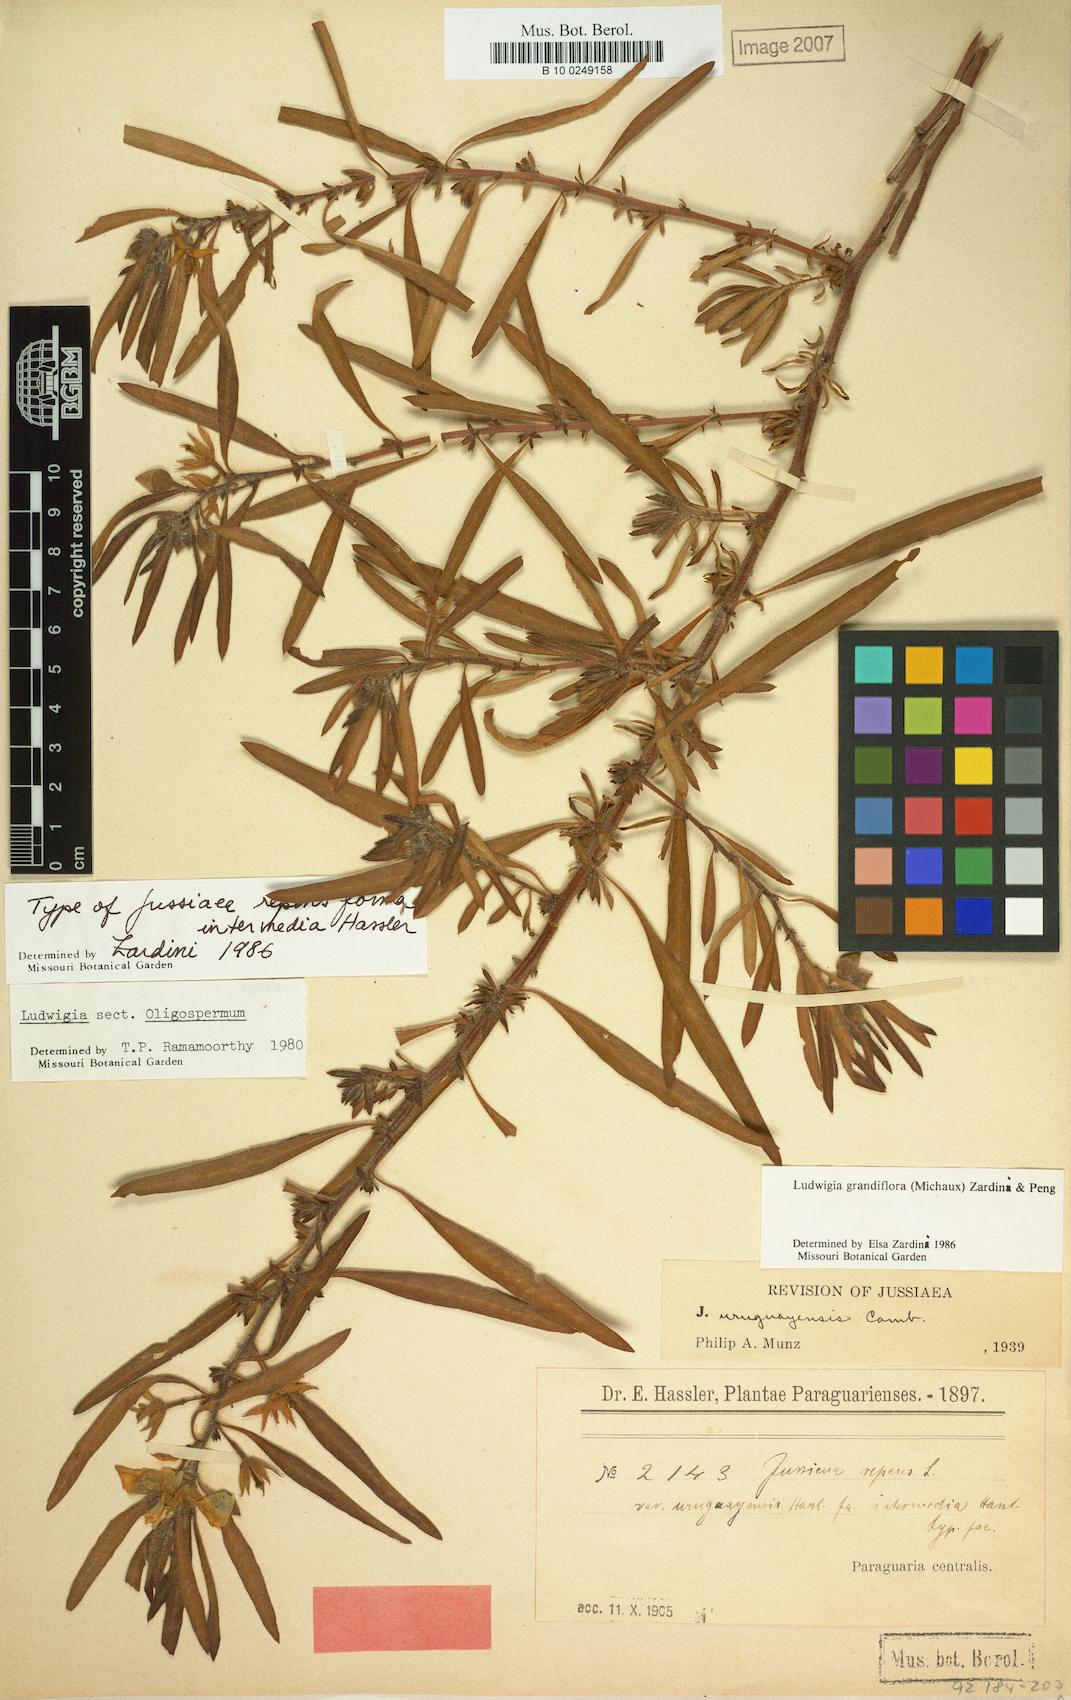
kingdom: Plantae
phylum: Tracheophyta
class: Magnoliopsida
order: Myrtales
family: Onagraceae
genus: Ludwigia
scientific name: Ludwigia grandiflora
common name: Water primrose
